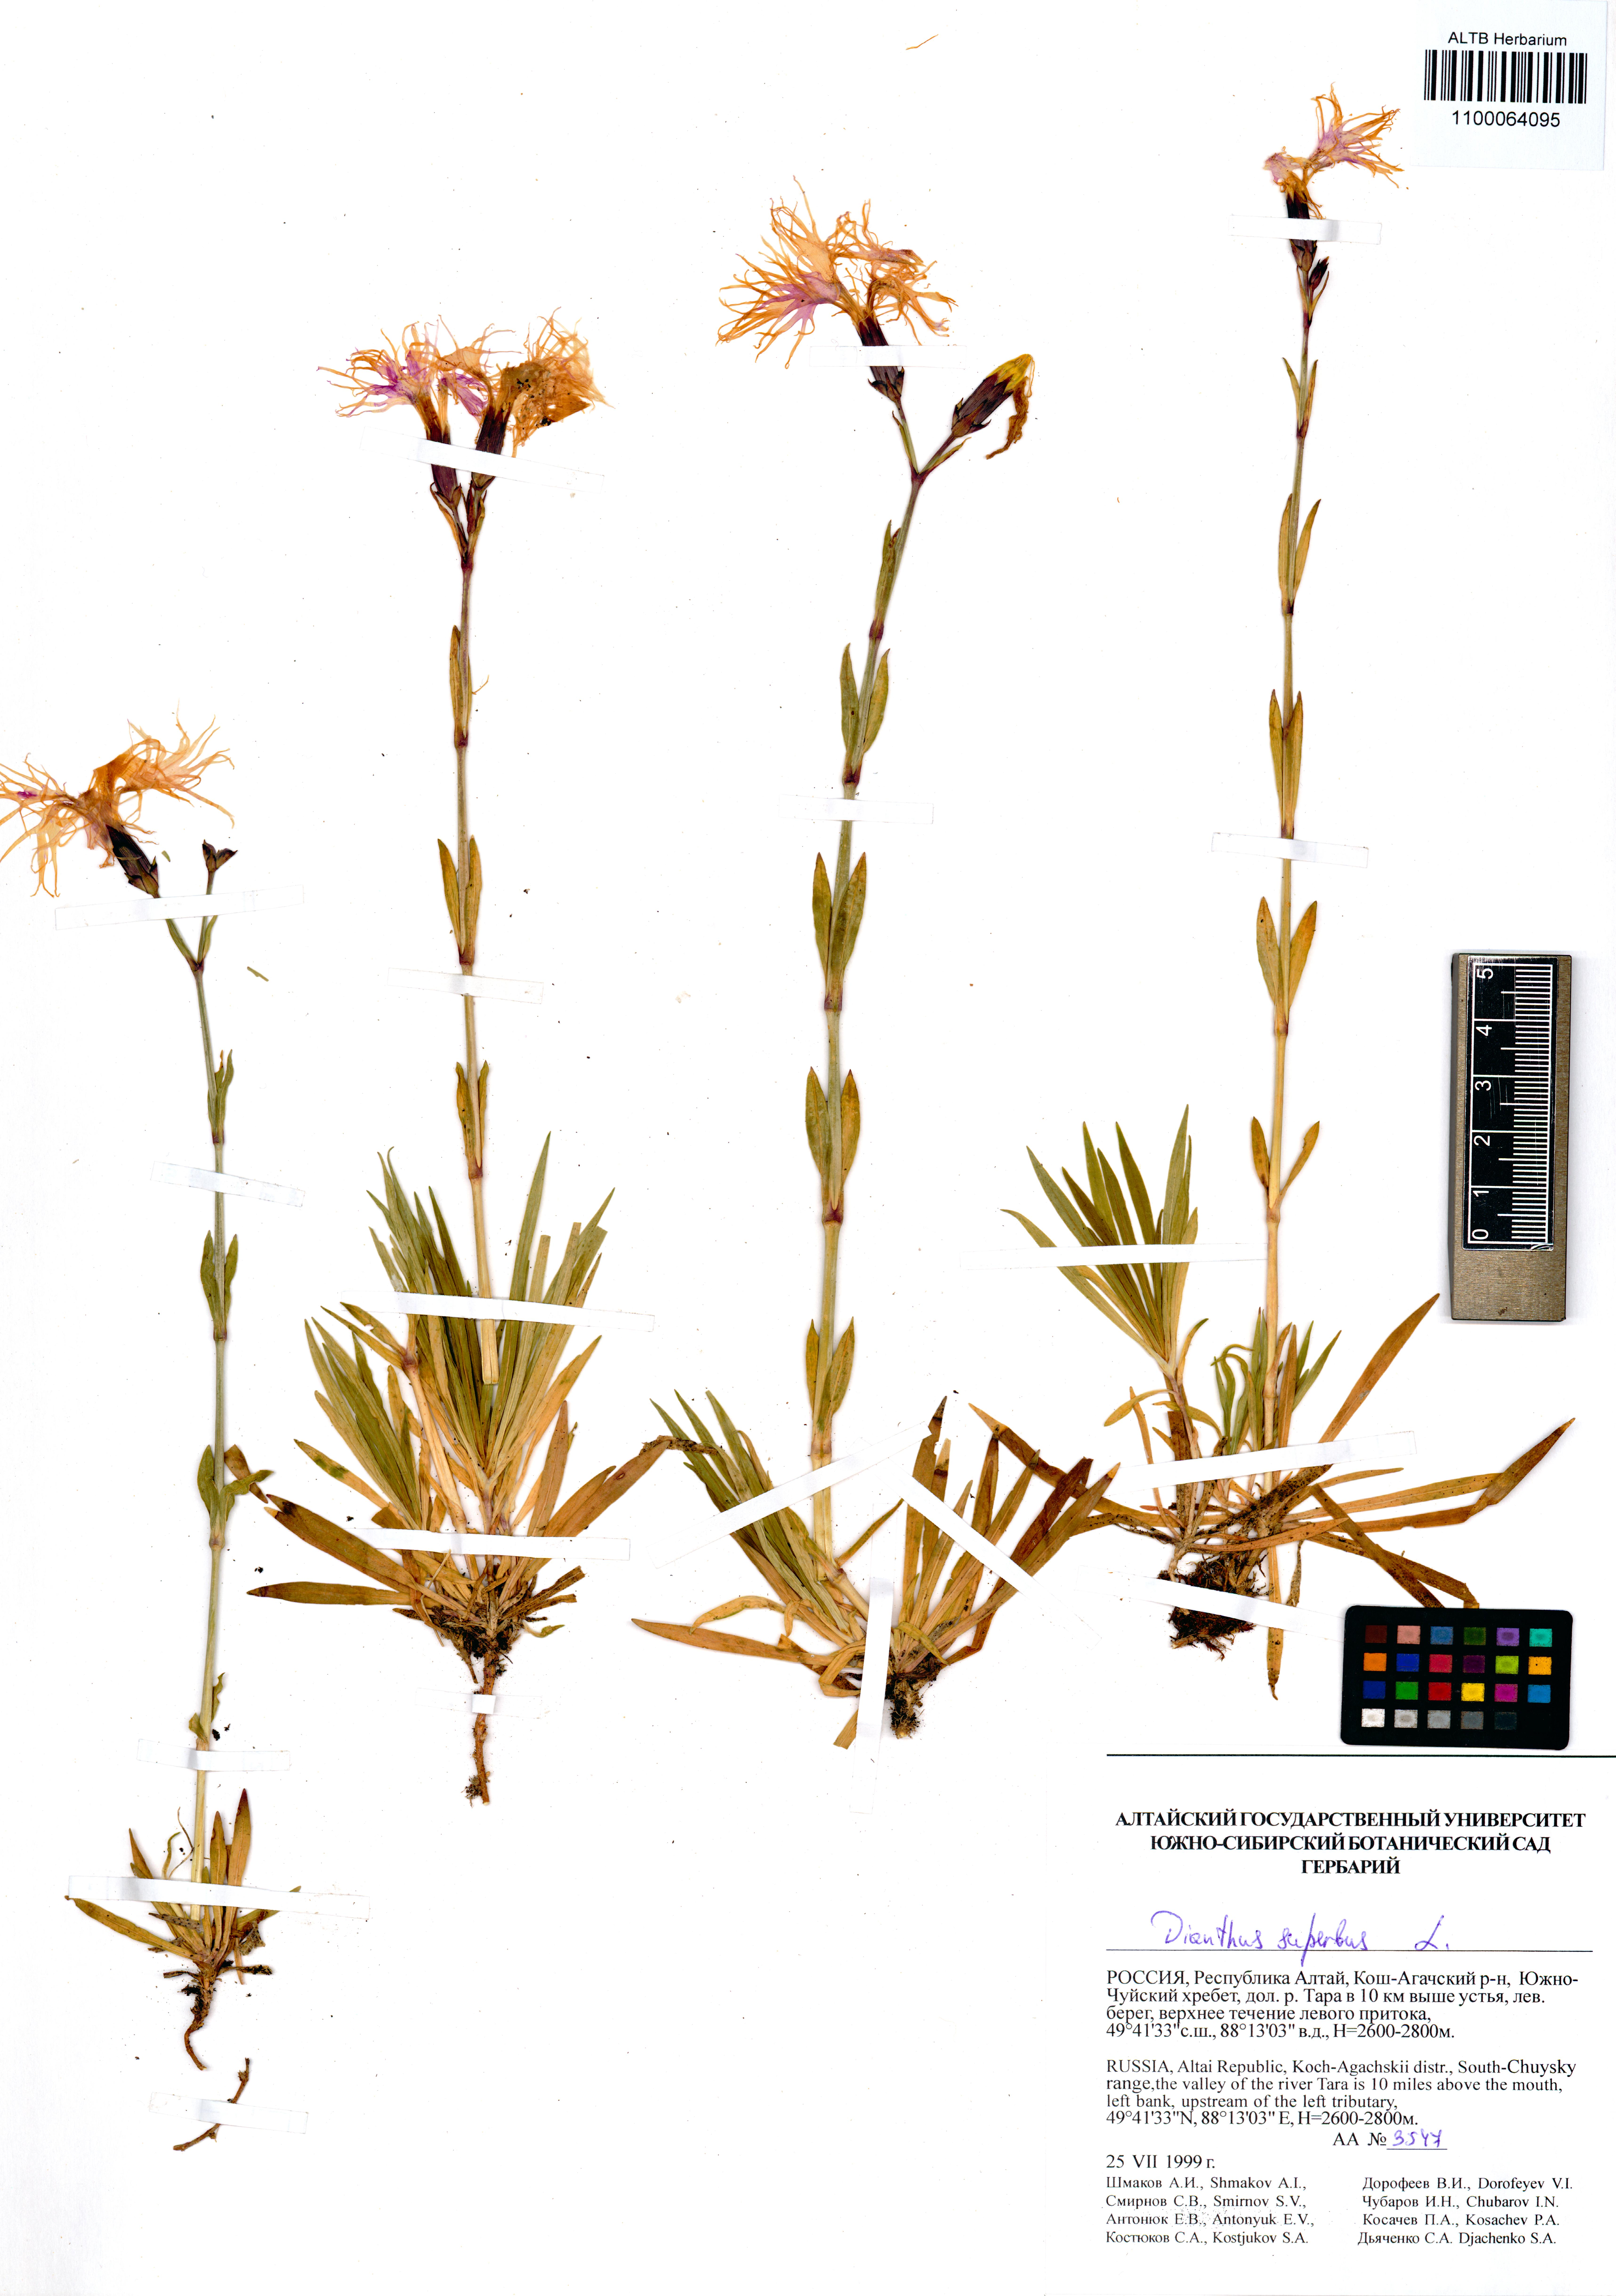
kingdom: Plantae
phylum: Tracheophyta
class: Magnoliopsida
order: Caryophyllales
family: Caryophyllaceae
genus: Dianthus
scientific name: Dianthus superbus
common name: Fringed pink
